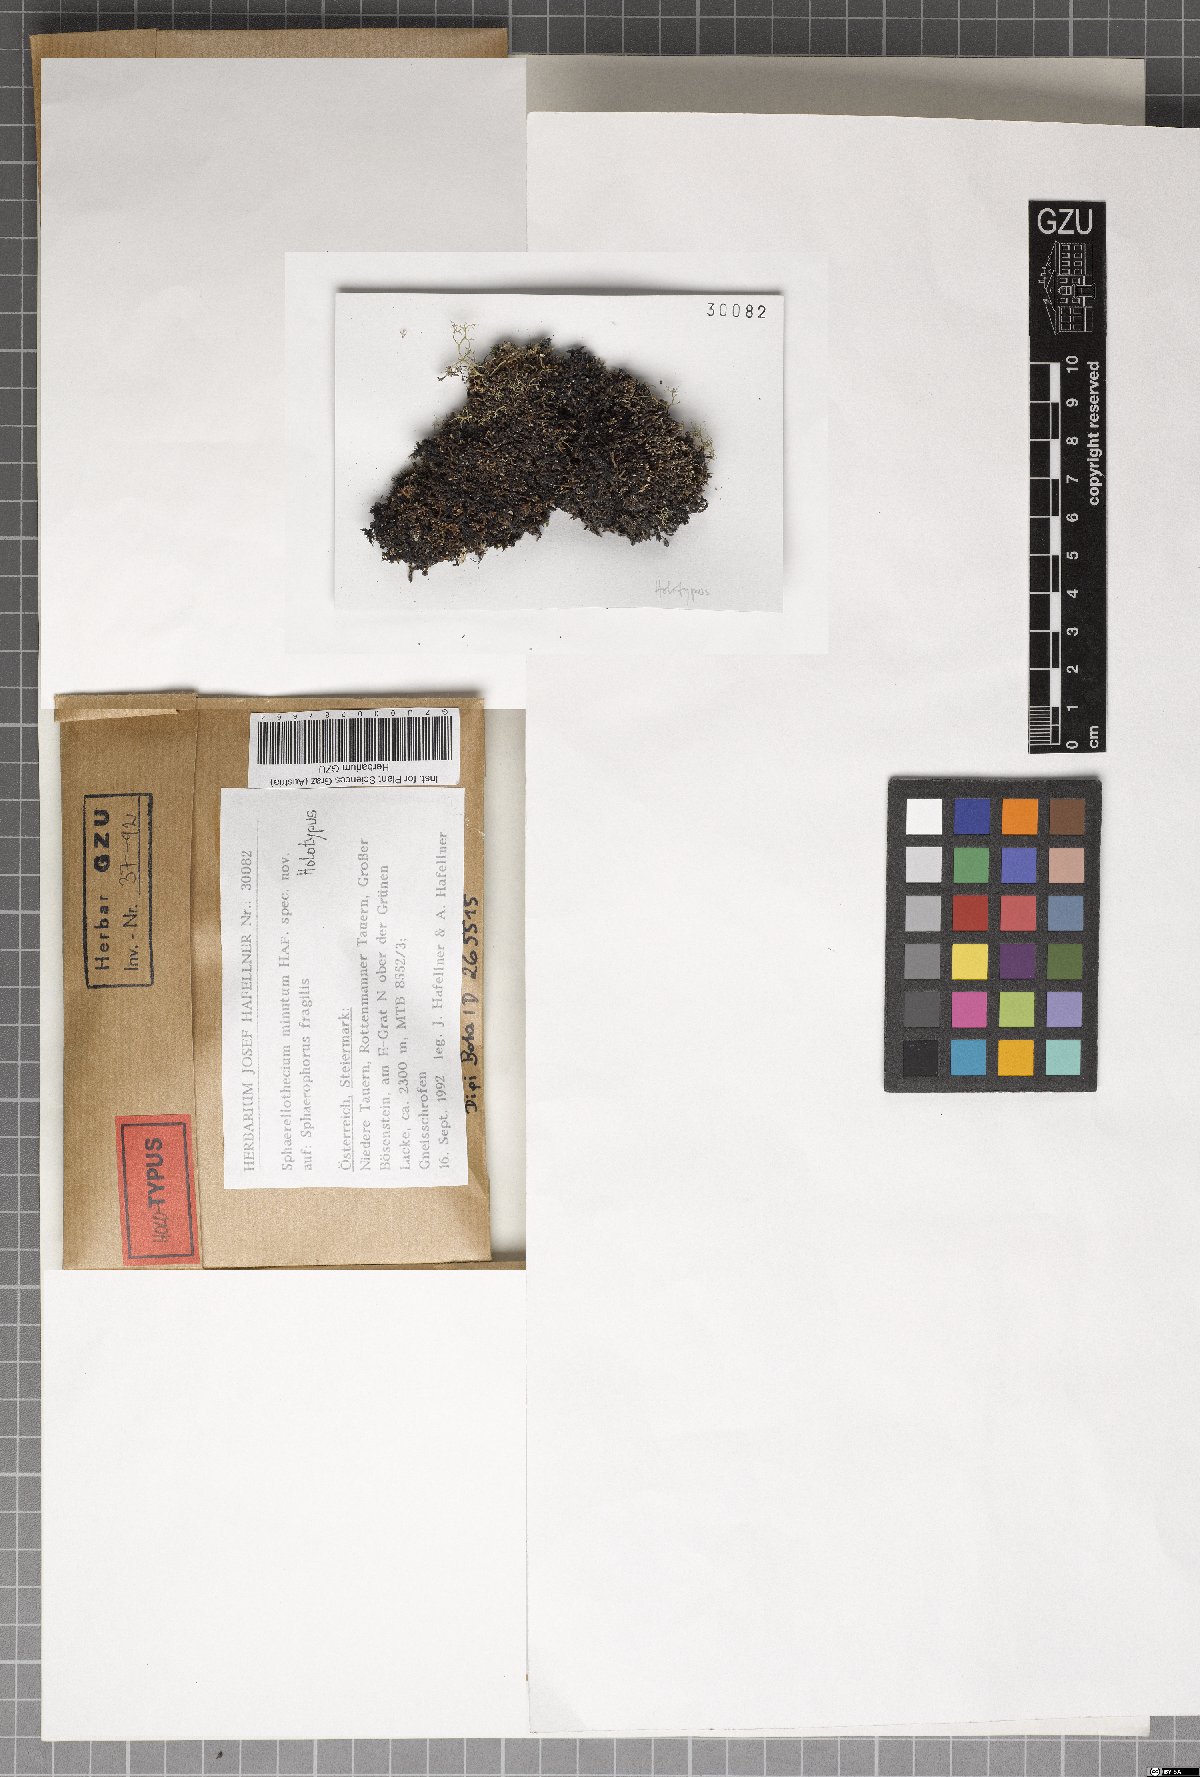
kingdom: Fungi
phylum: Ascomycota
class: Dothideomycetes
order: Mycosphaerellales
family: Mycosphaerellaceae
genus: Sphaerellothecium
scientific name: Sphaerellothecium minutum
